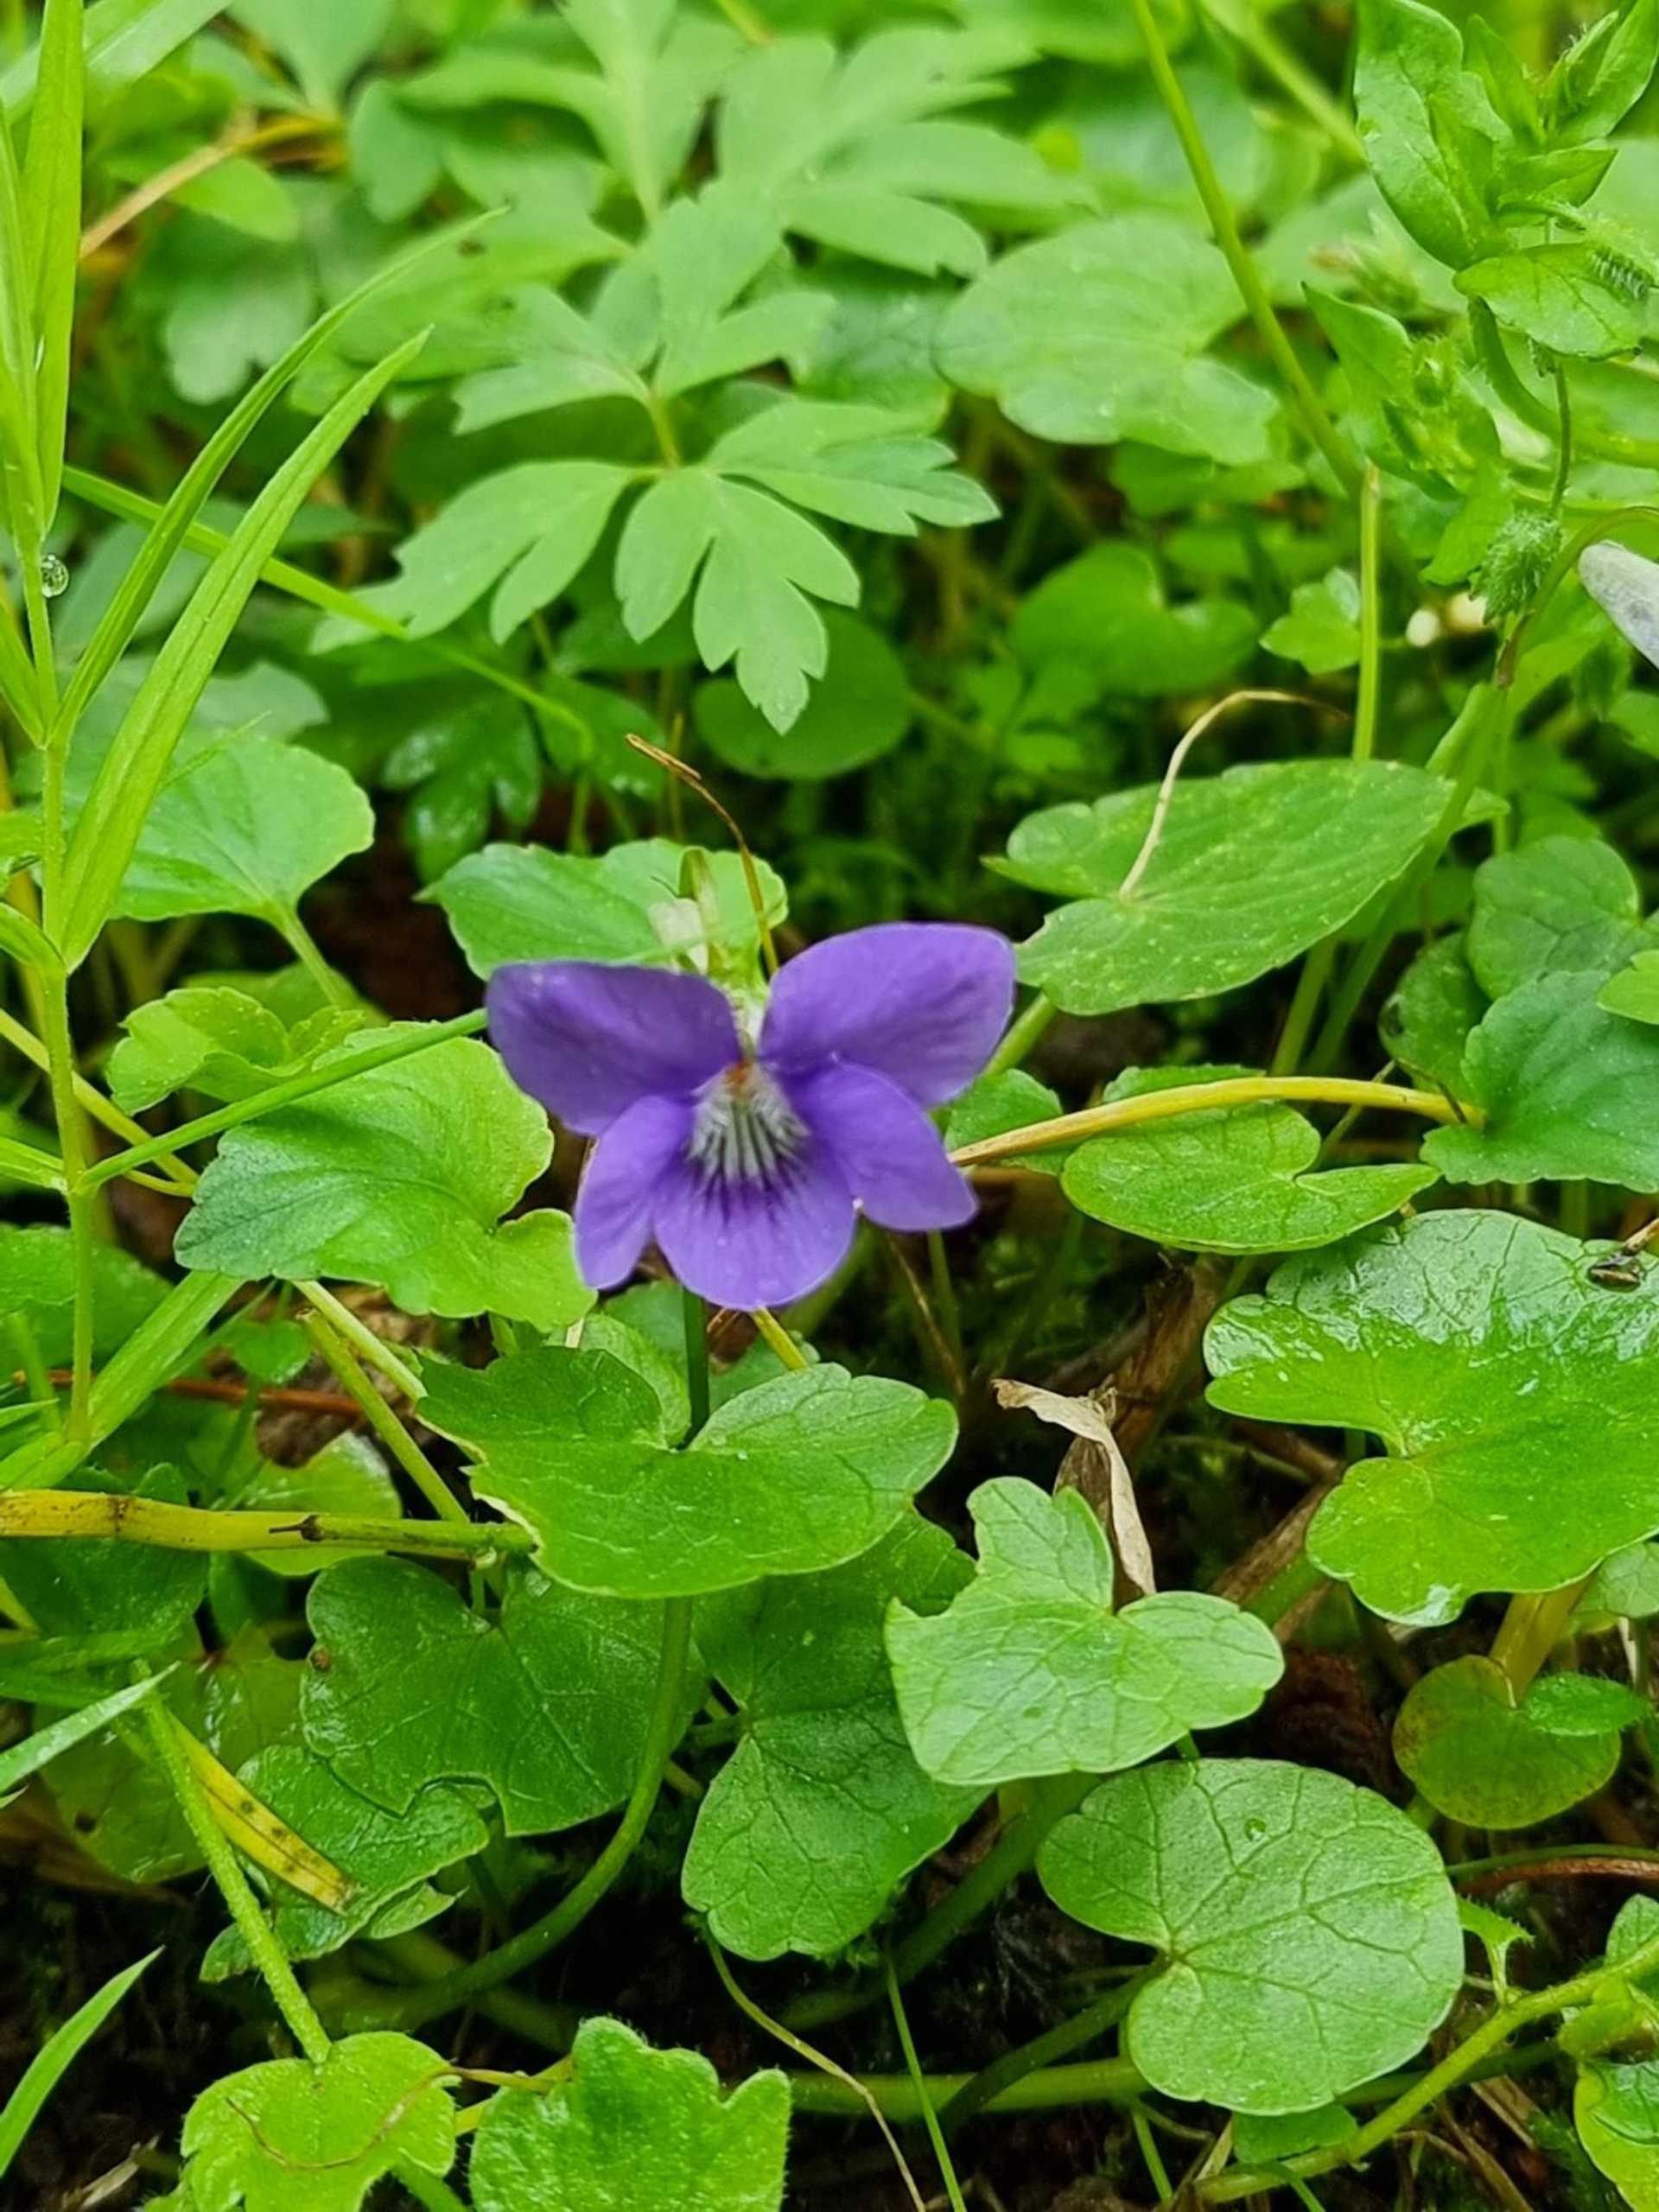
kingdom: Plantae
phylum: Tracheophyta
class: Magnoliopsida
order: Malpighiales
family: Violaceae
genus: Viola
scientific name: Viola riviniana
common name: Krat-viol
